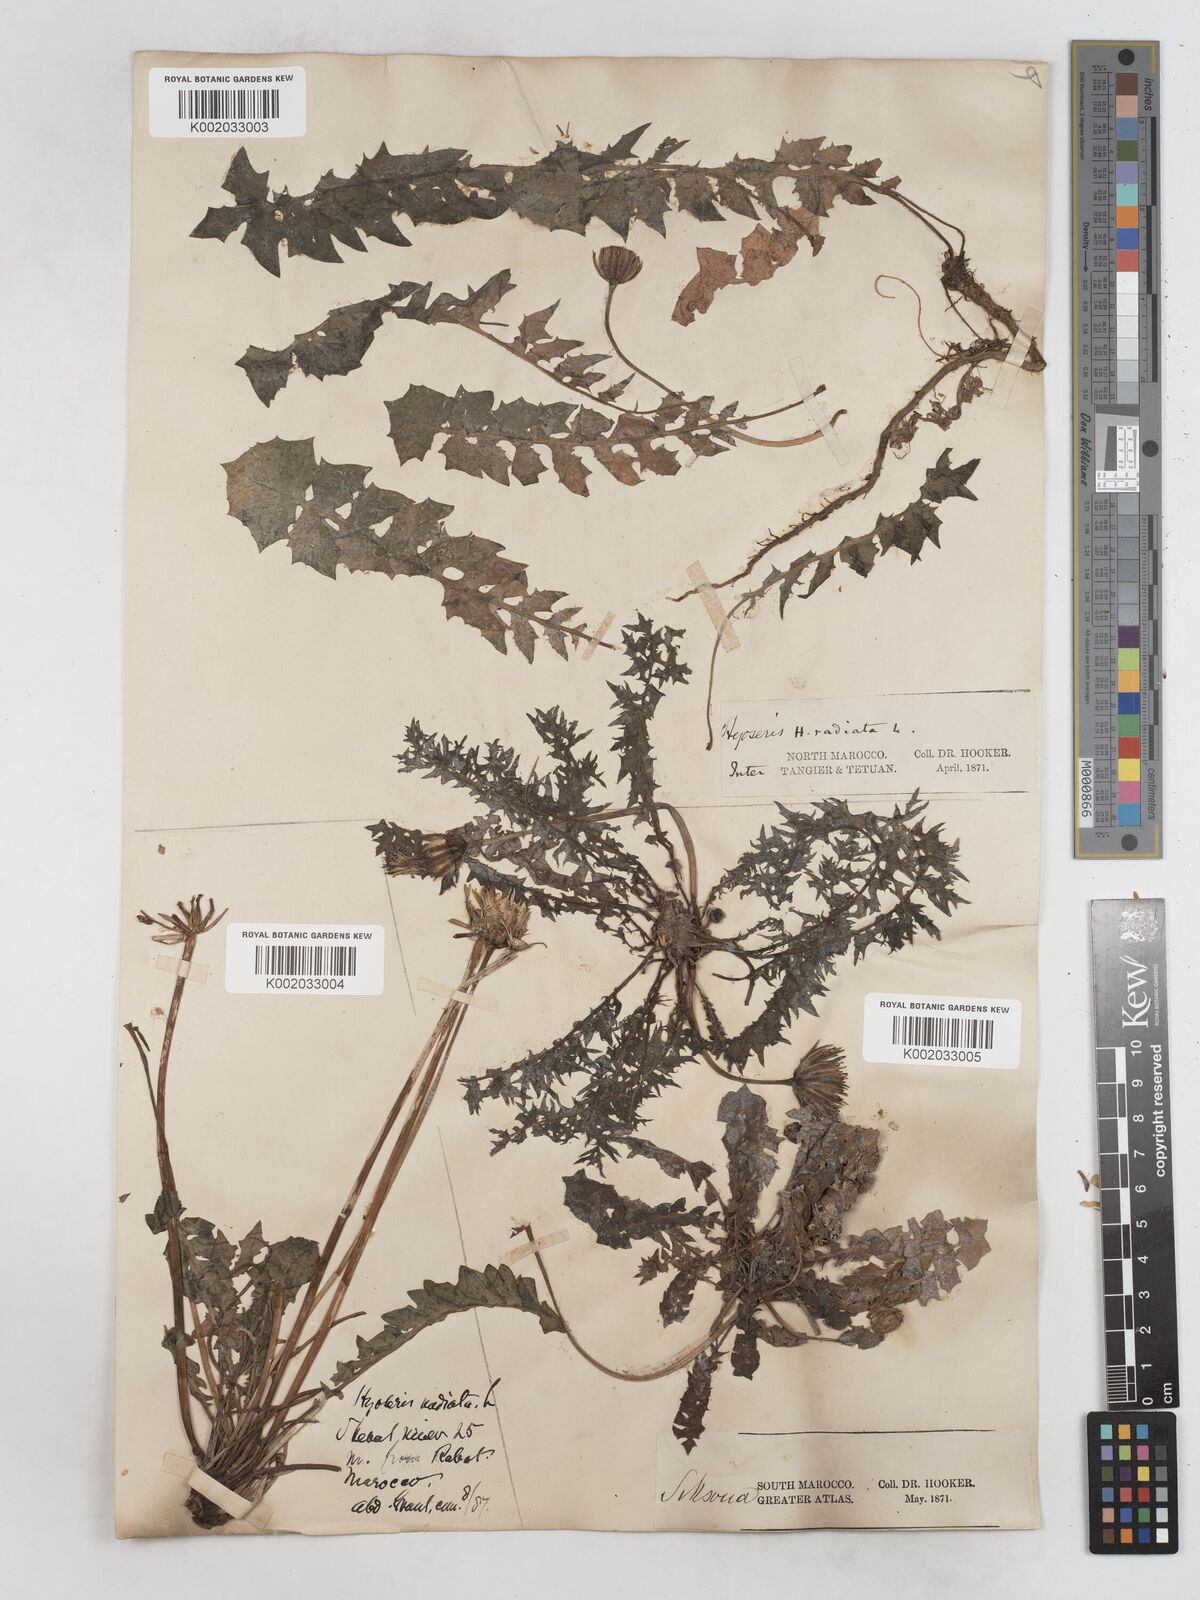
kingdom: Plantae
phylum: Tracheophyta
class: Magnoliopsida
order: Asterales
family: Asteraceae
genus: Hyoseris
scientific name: Hyoseris radiata
